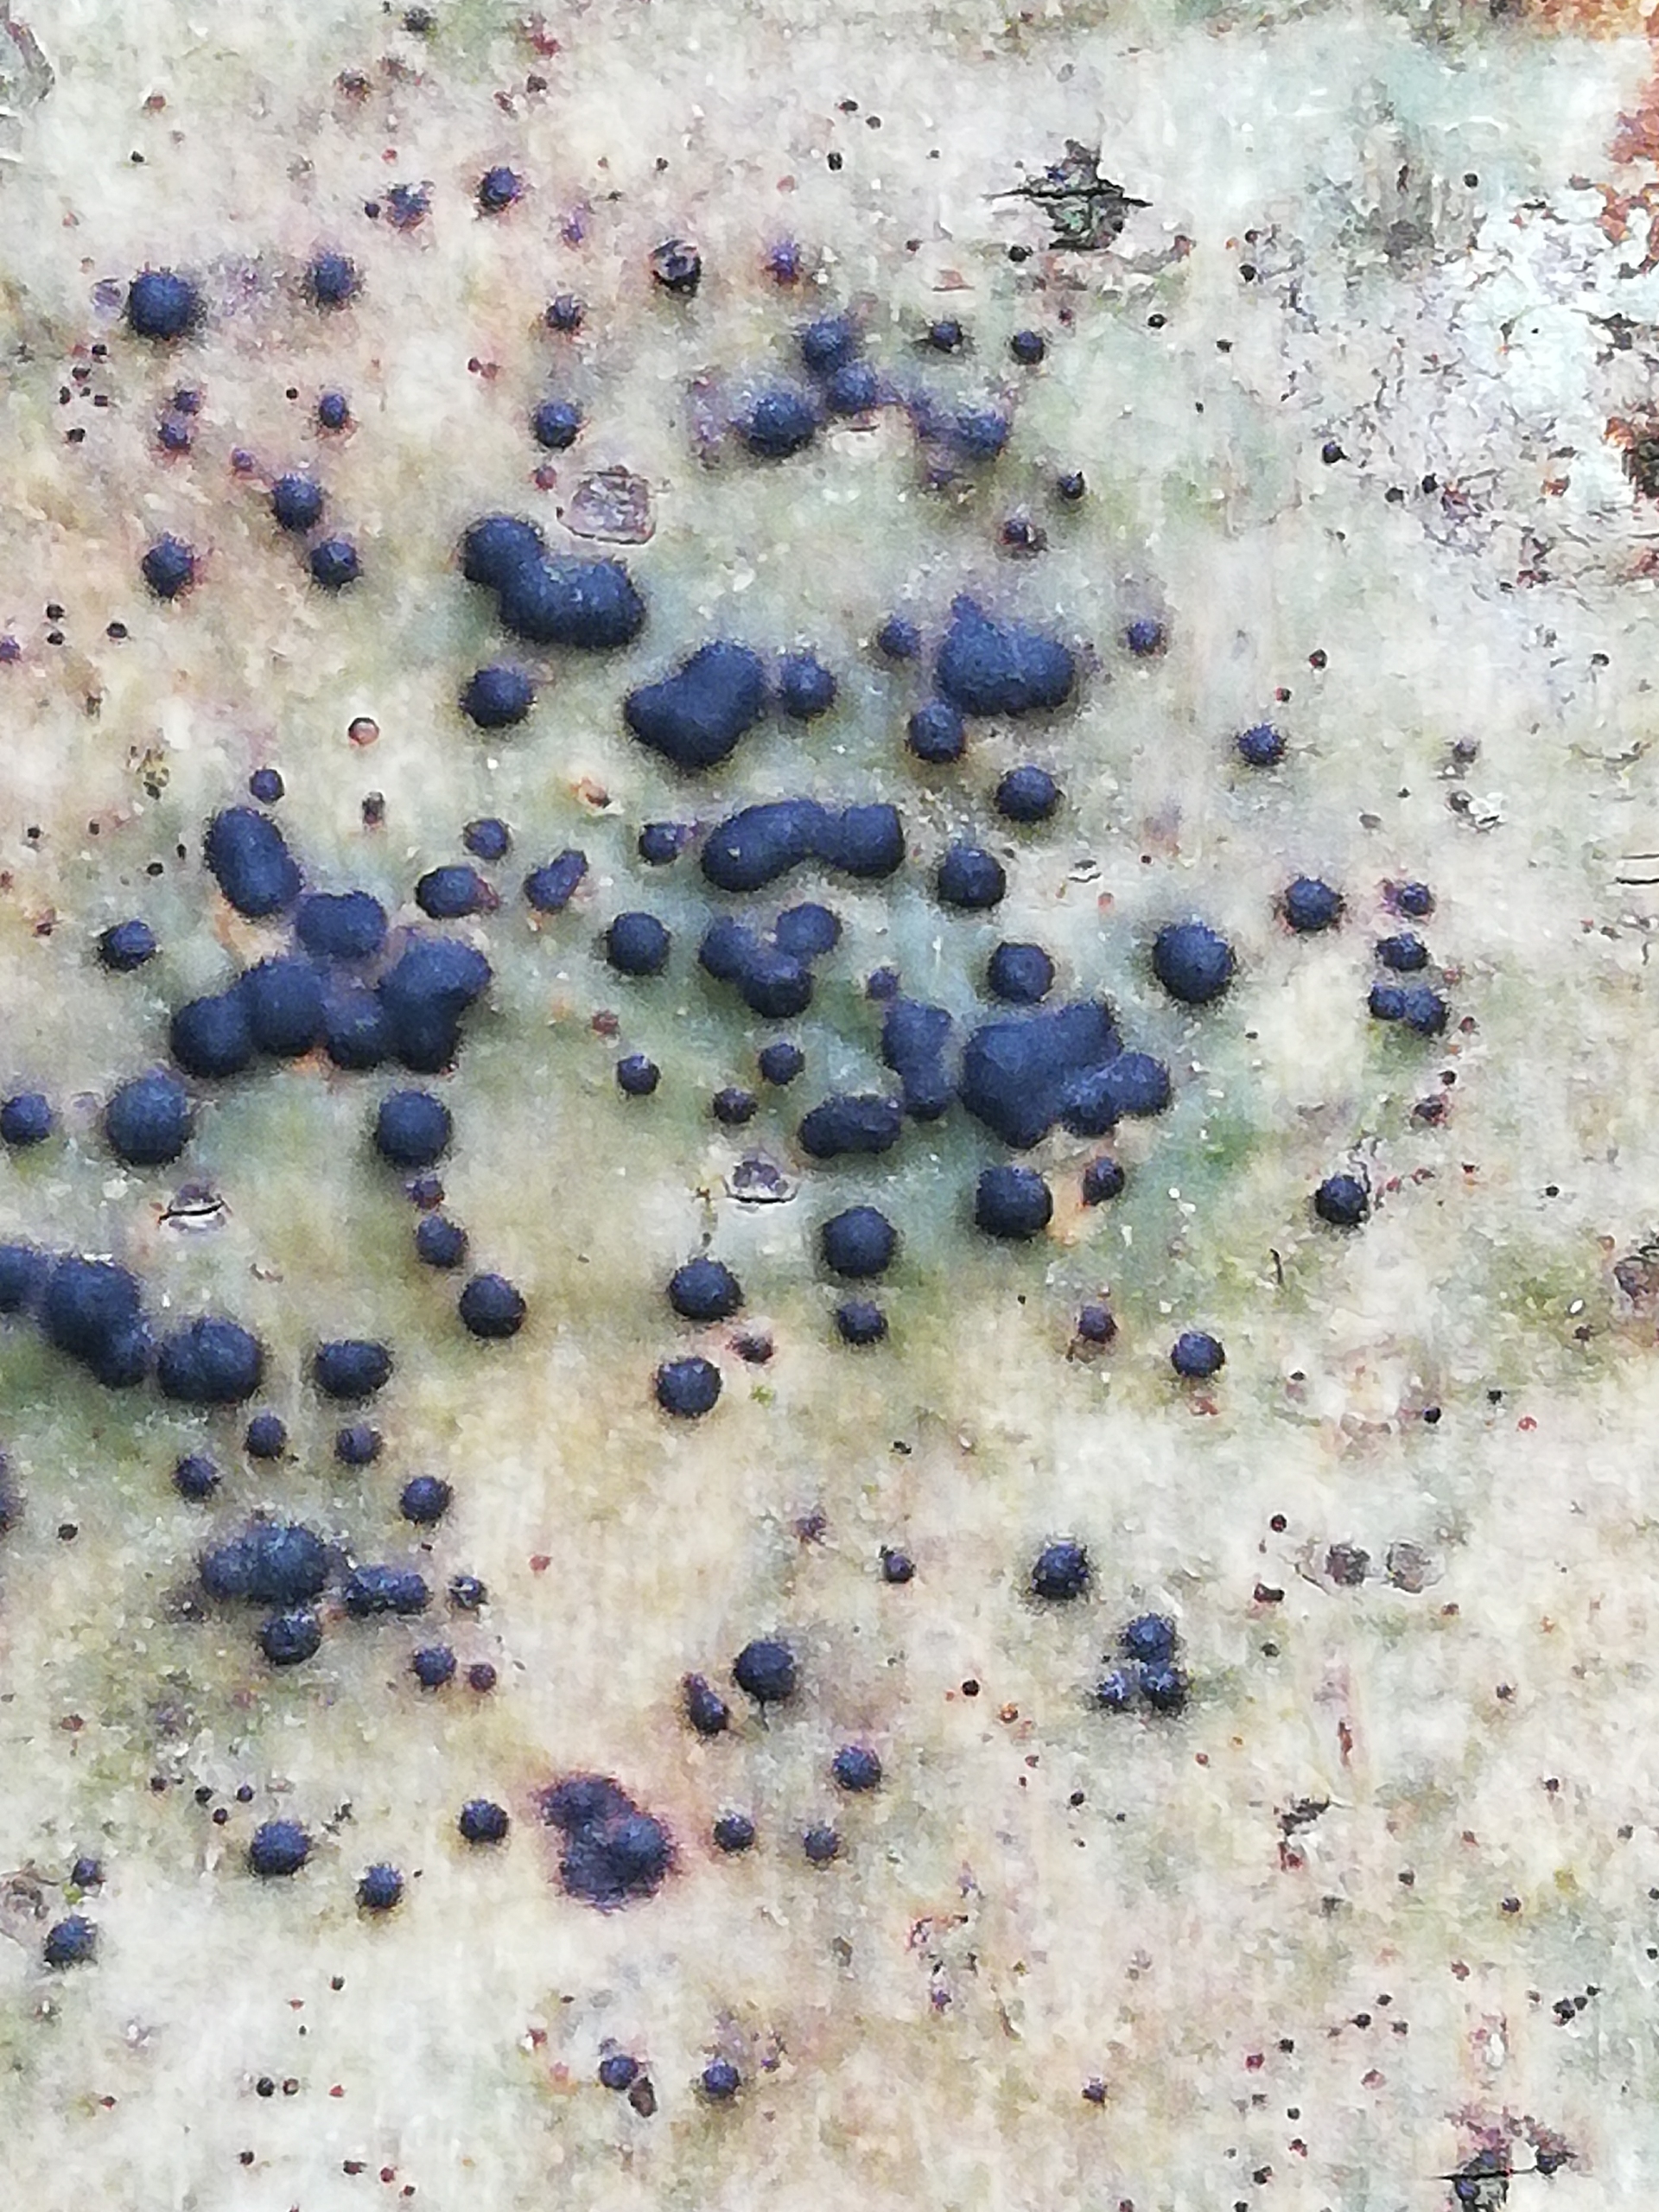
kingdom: Fungi
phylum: Ascomycota
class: Eurotiomycetes
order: Pyrenulales
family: Pyrenulaceae
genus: Pyrenula
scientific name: Pyrenula nitida
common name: Glinsende kernelav
